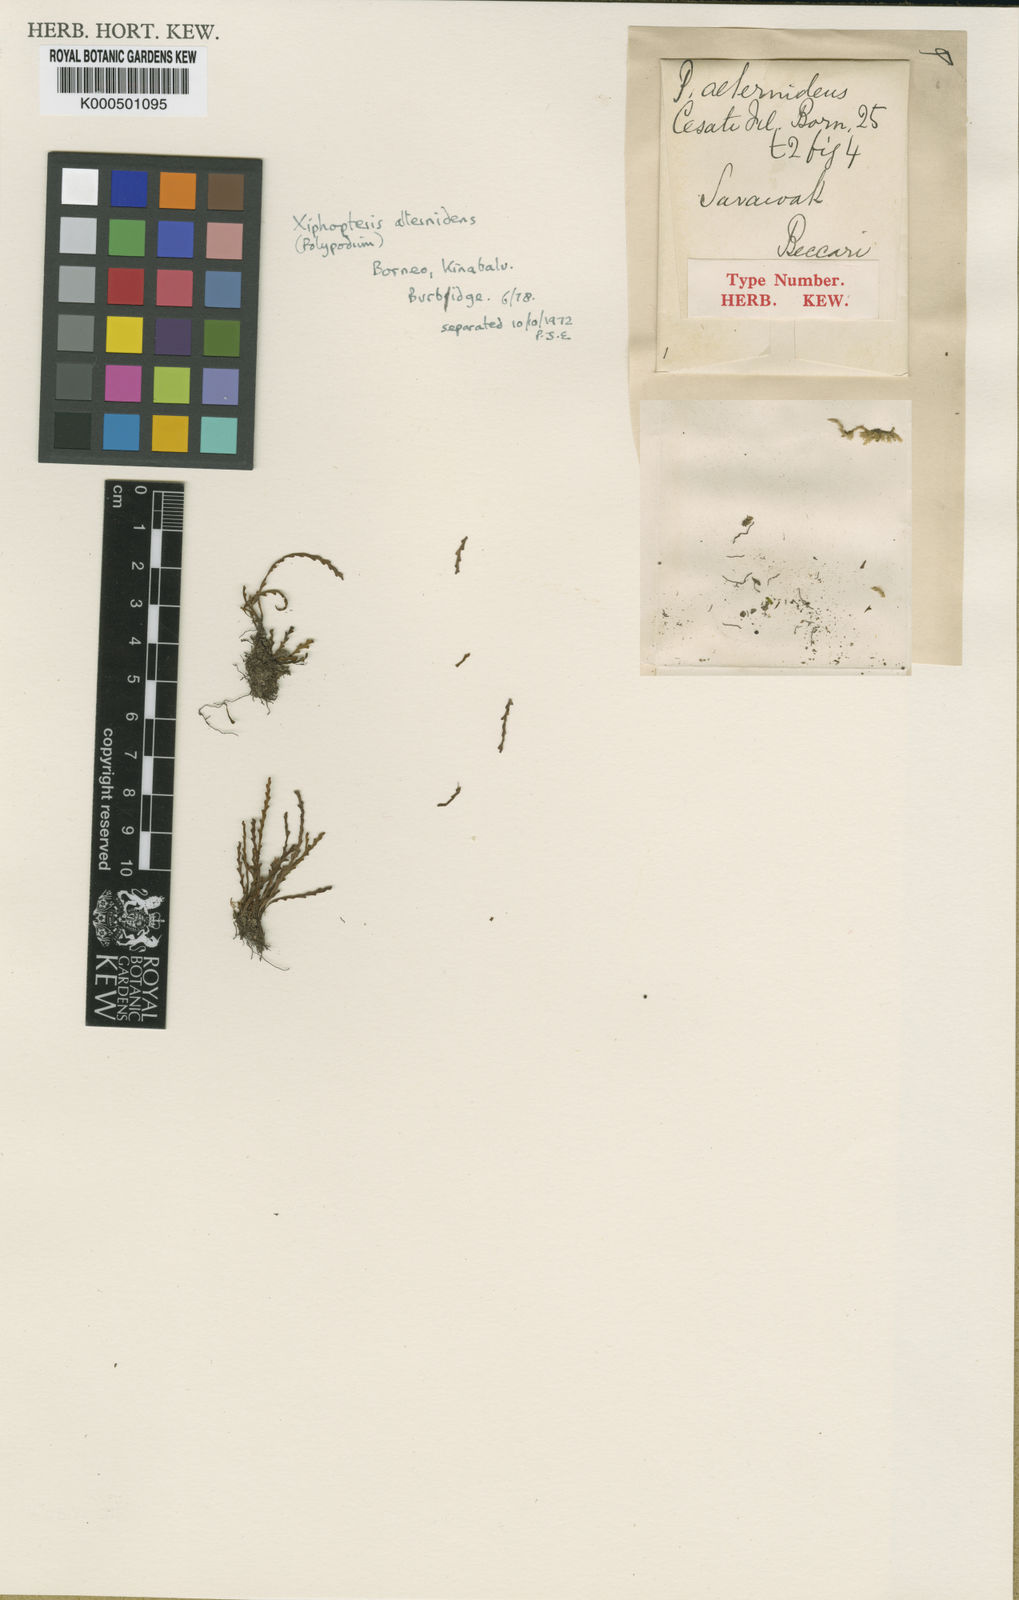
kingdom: Plantae
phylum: Tracheophyta
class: Polypodiopsida
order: Polypodiales
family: Polypodiaceae
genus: Xiphopterella
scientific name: Xiphopterella alternidens
